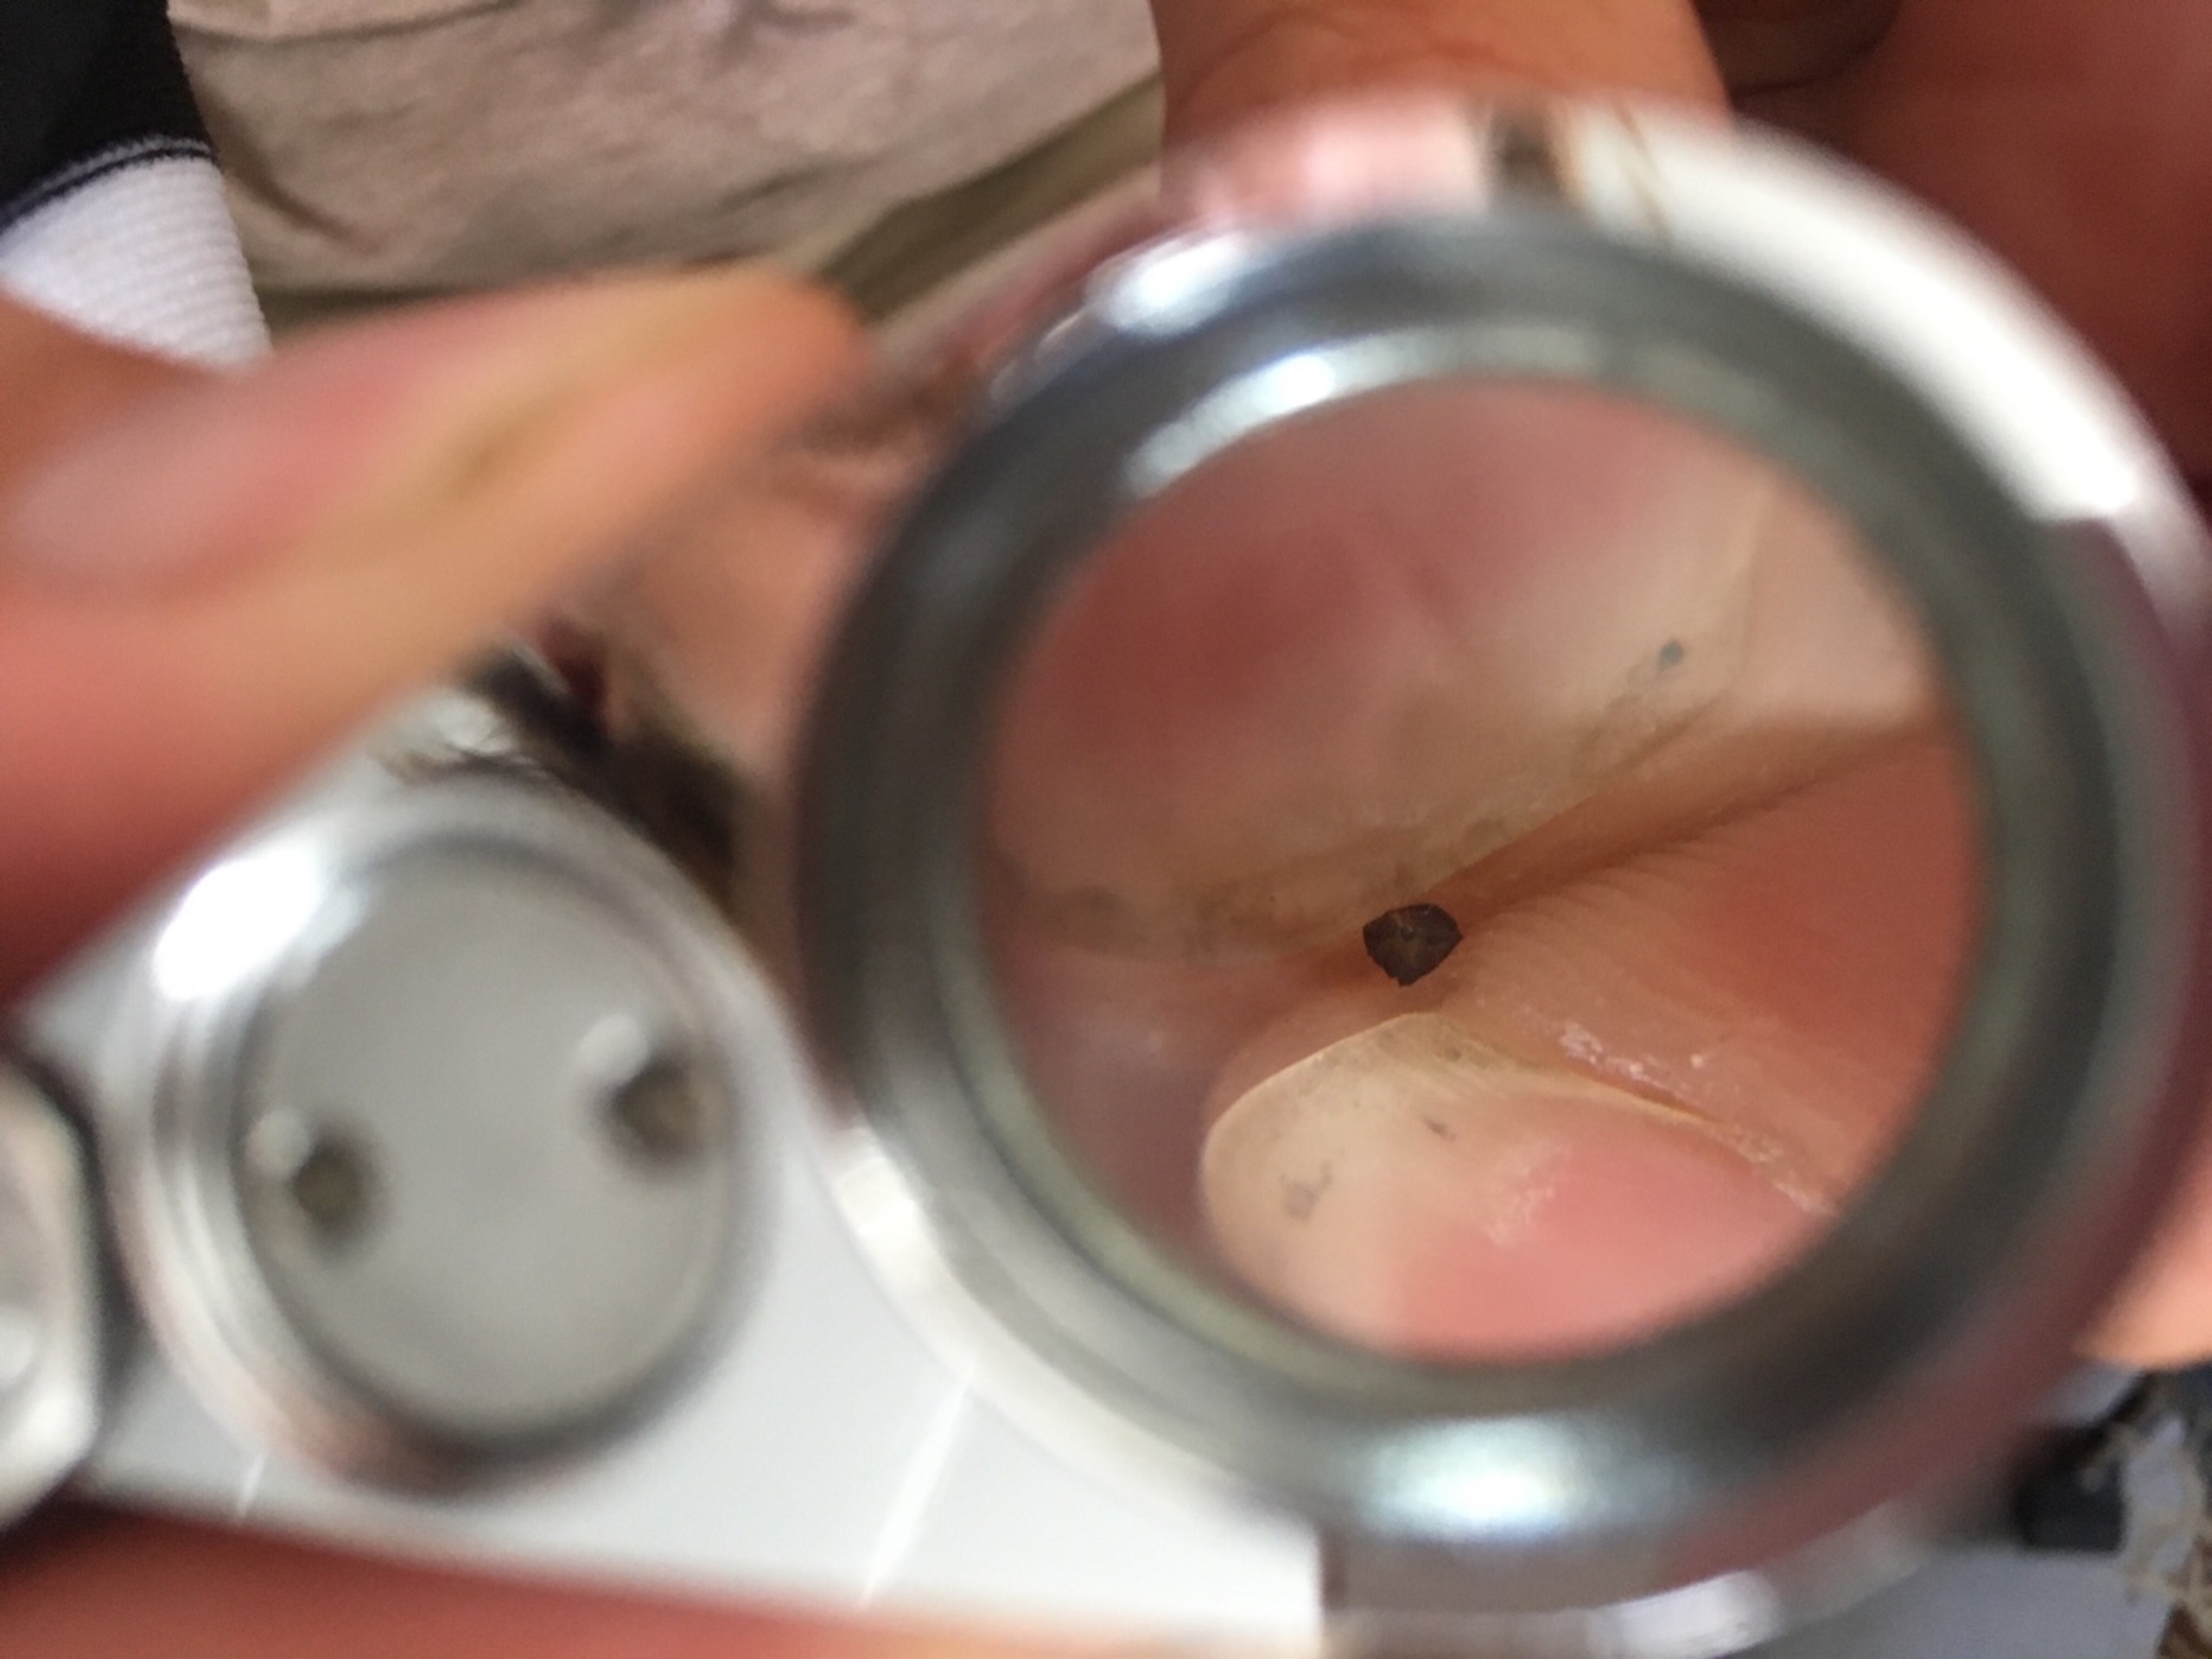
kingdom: Plantae
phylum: Tracheophyta
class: Liliopsida
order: Poales
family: Cyperaceae
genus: Carex
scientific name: Carex flacca
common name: Blågrøn star
